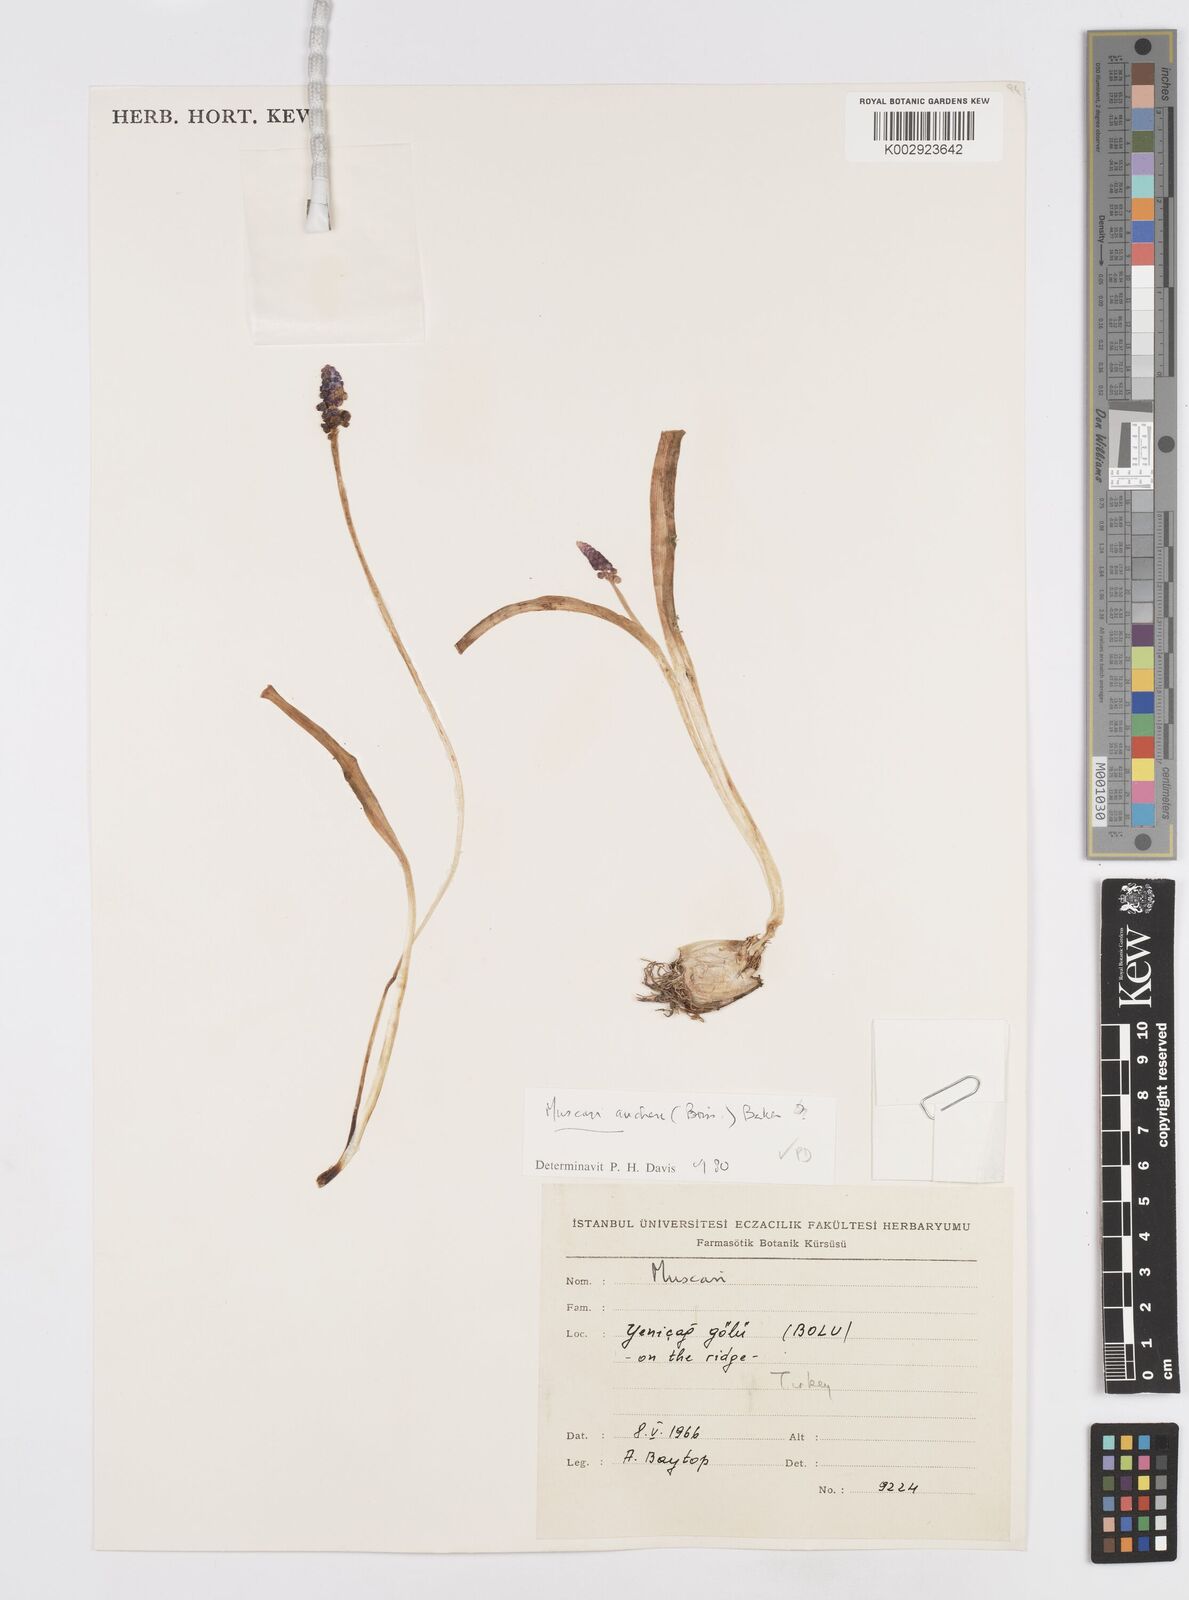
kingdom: Plantae
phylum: Tracheophyta
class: Liliopsida
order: Asparagales
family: Asparagaceae
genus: Muscari
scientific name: Muscari aucheri
